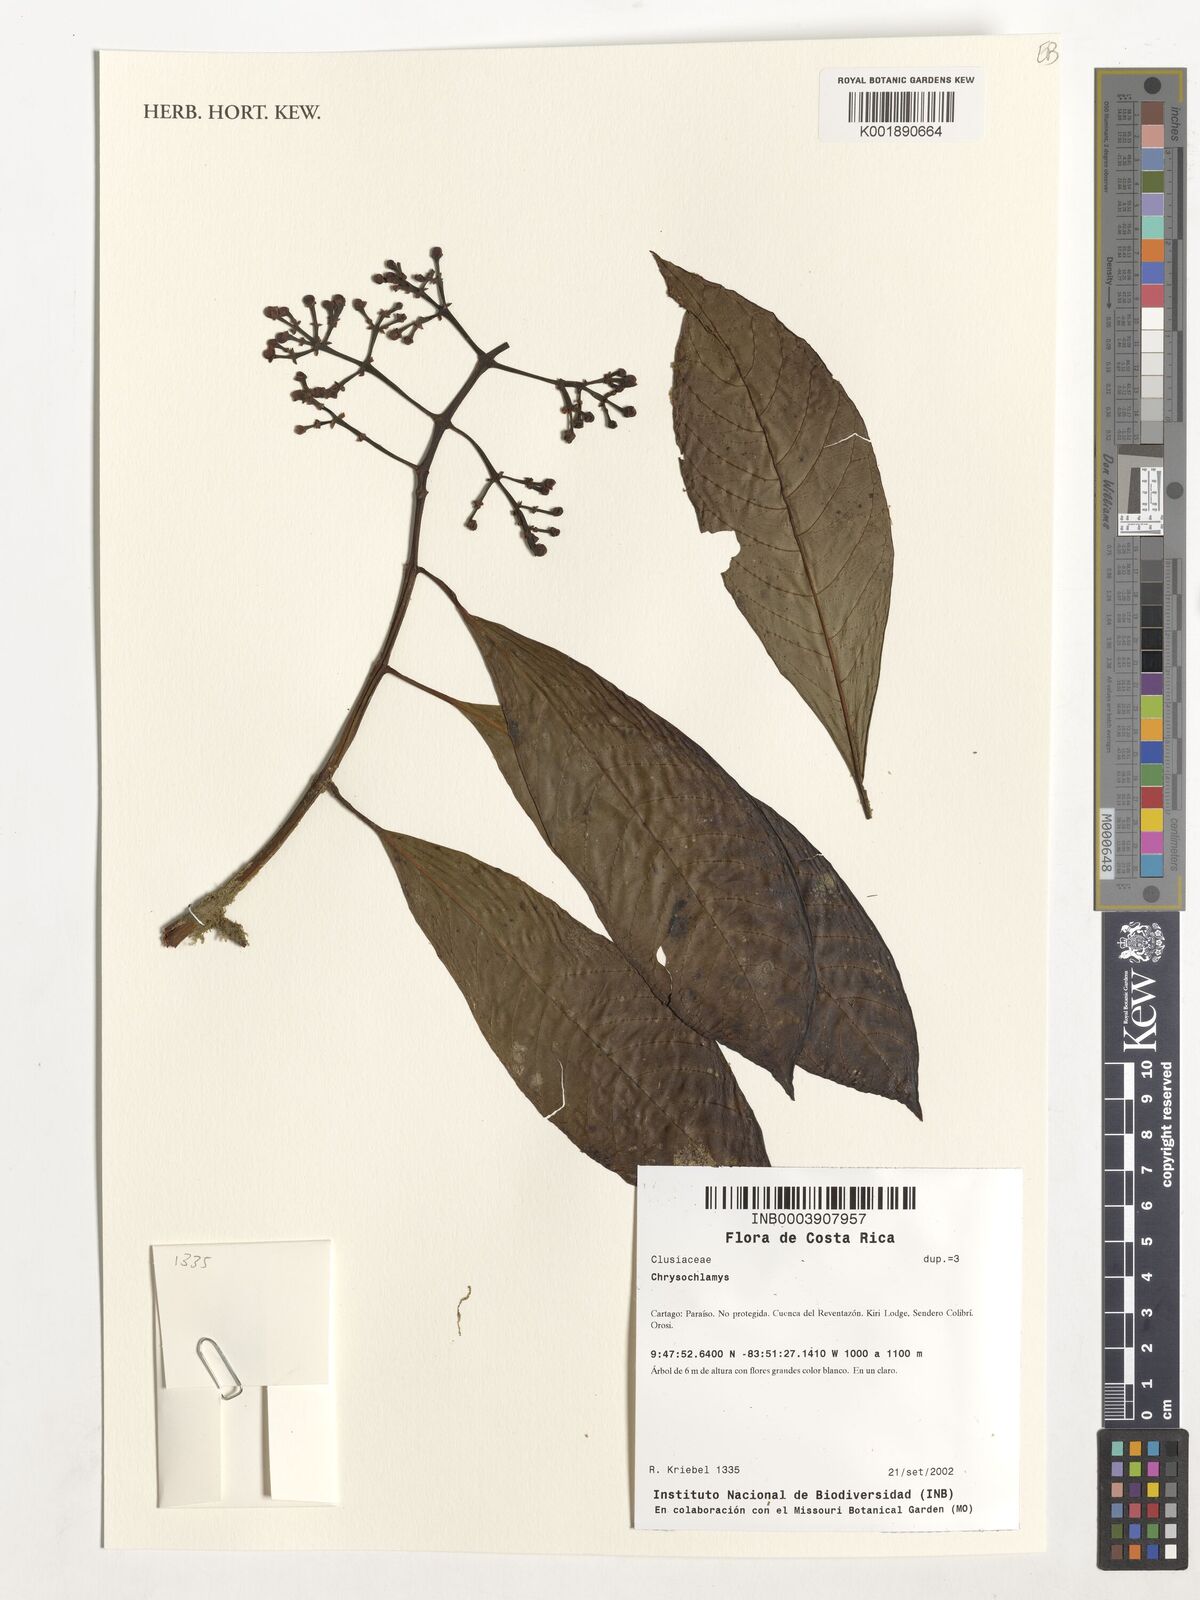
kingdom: Plantae
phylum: Tracheophyta
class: Magnoliopsida
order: Malpighiales
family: Clusiaceae
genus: Chrysochlamys
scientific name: Chrysochlamys
